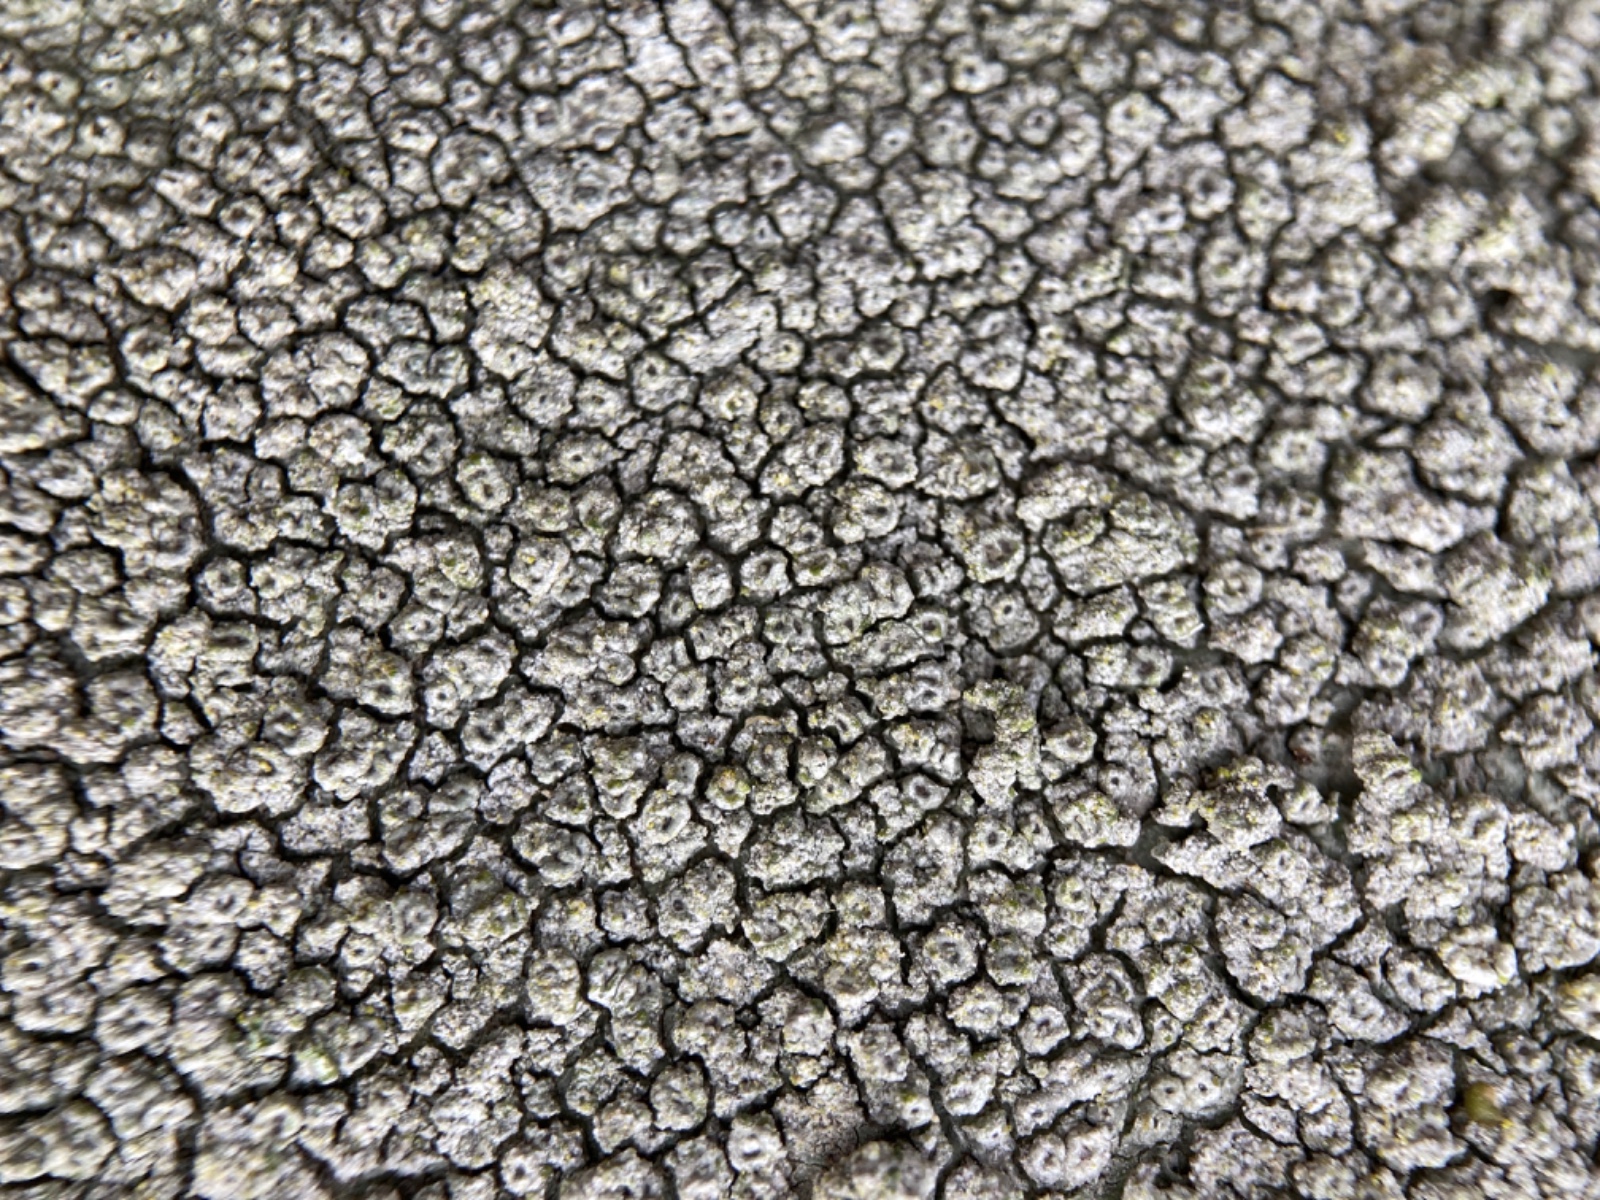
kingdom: Fungi
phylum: Ascomycota
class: Lecanoromycetes
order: Pertusariales
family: Pertusariaceae
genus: Pertusaria
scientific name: Pertusaria pertusa
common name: almindelig prikvortelav
